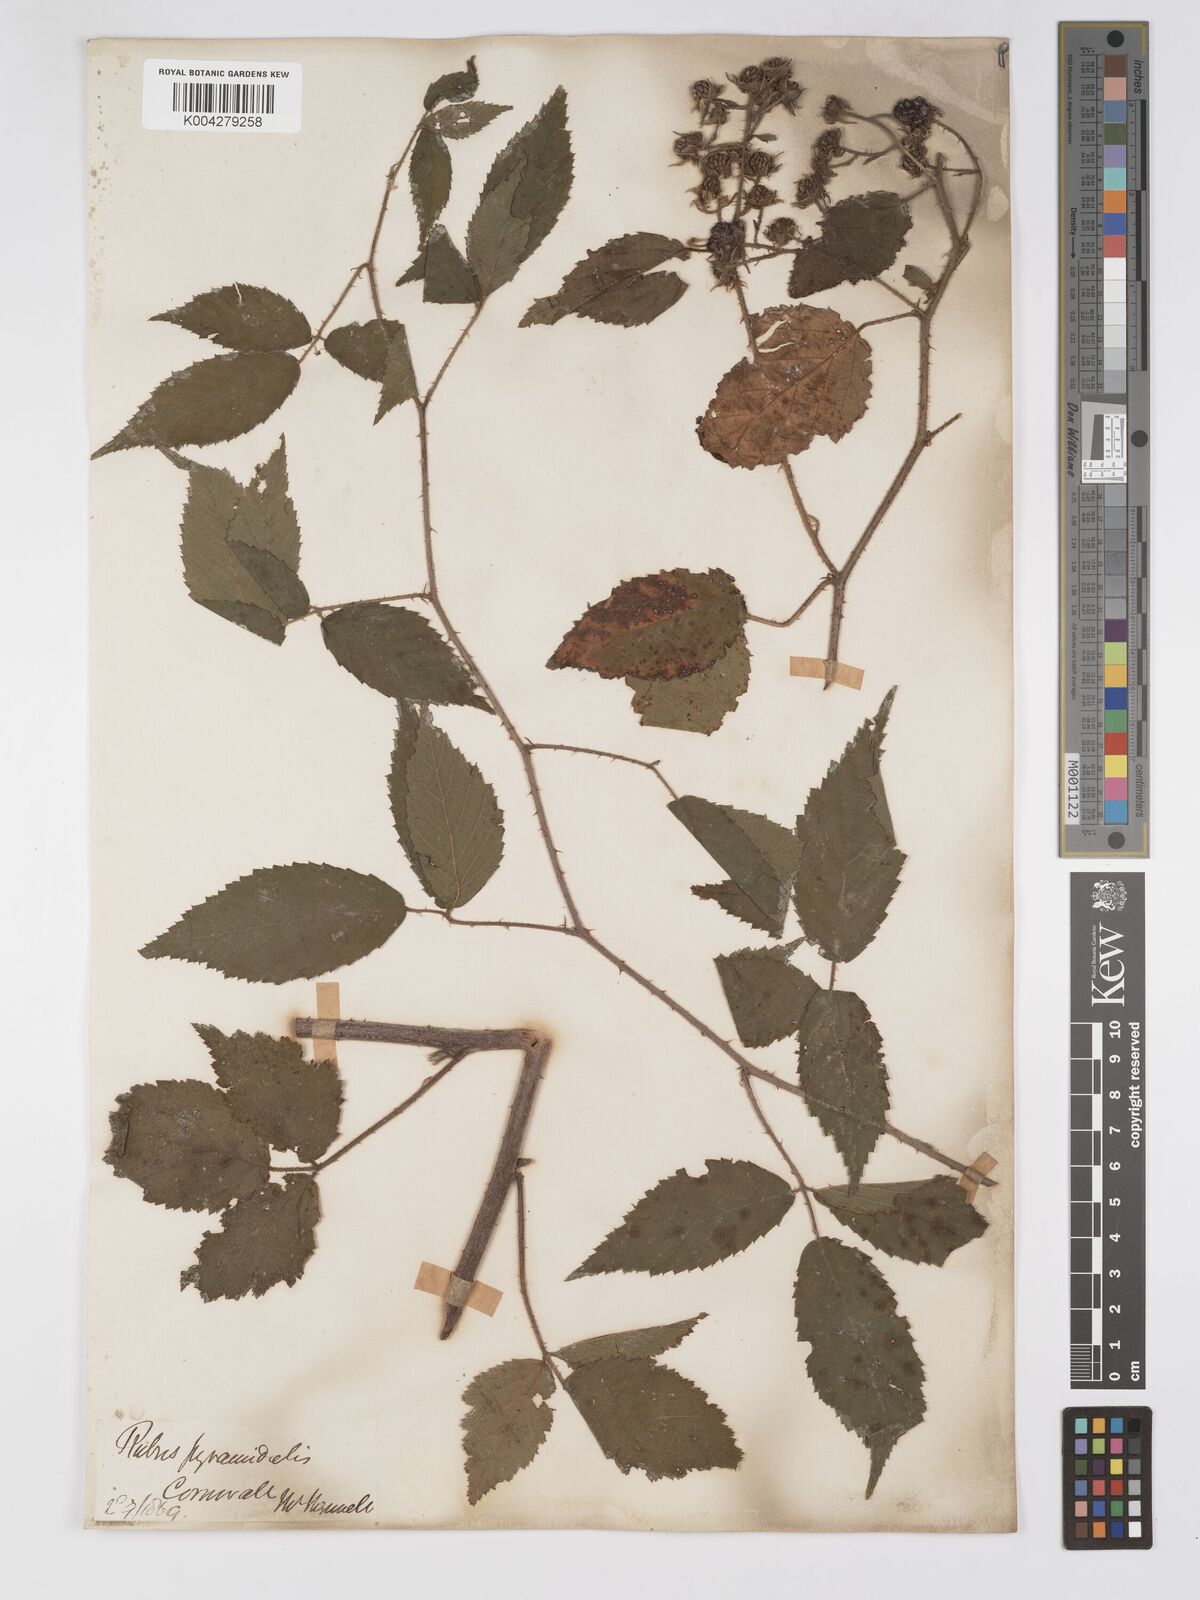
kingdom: Plantae
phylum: Tracheophyta
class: Magnoliopsida
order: Rosales
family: Rosaceae
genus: Rubus
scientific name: Rubus longithyrsiger
